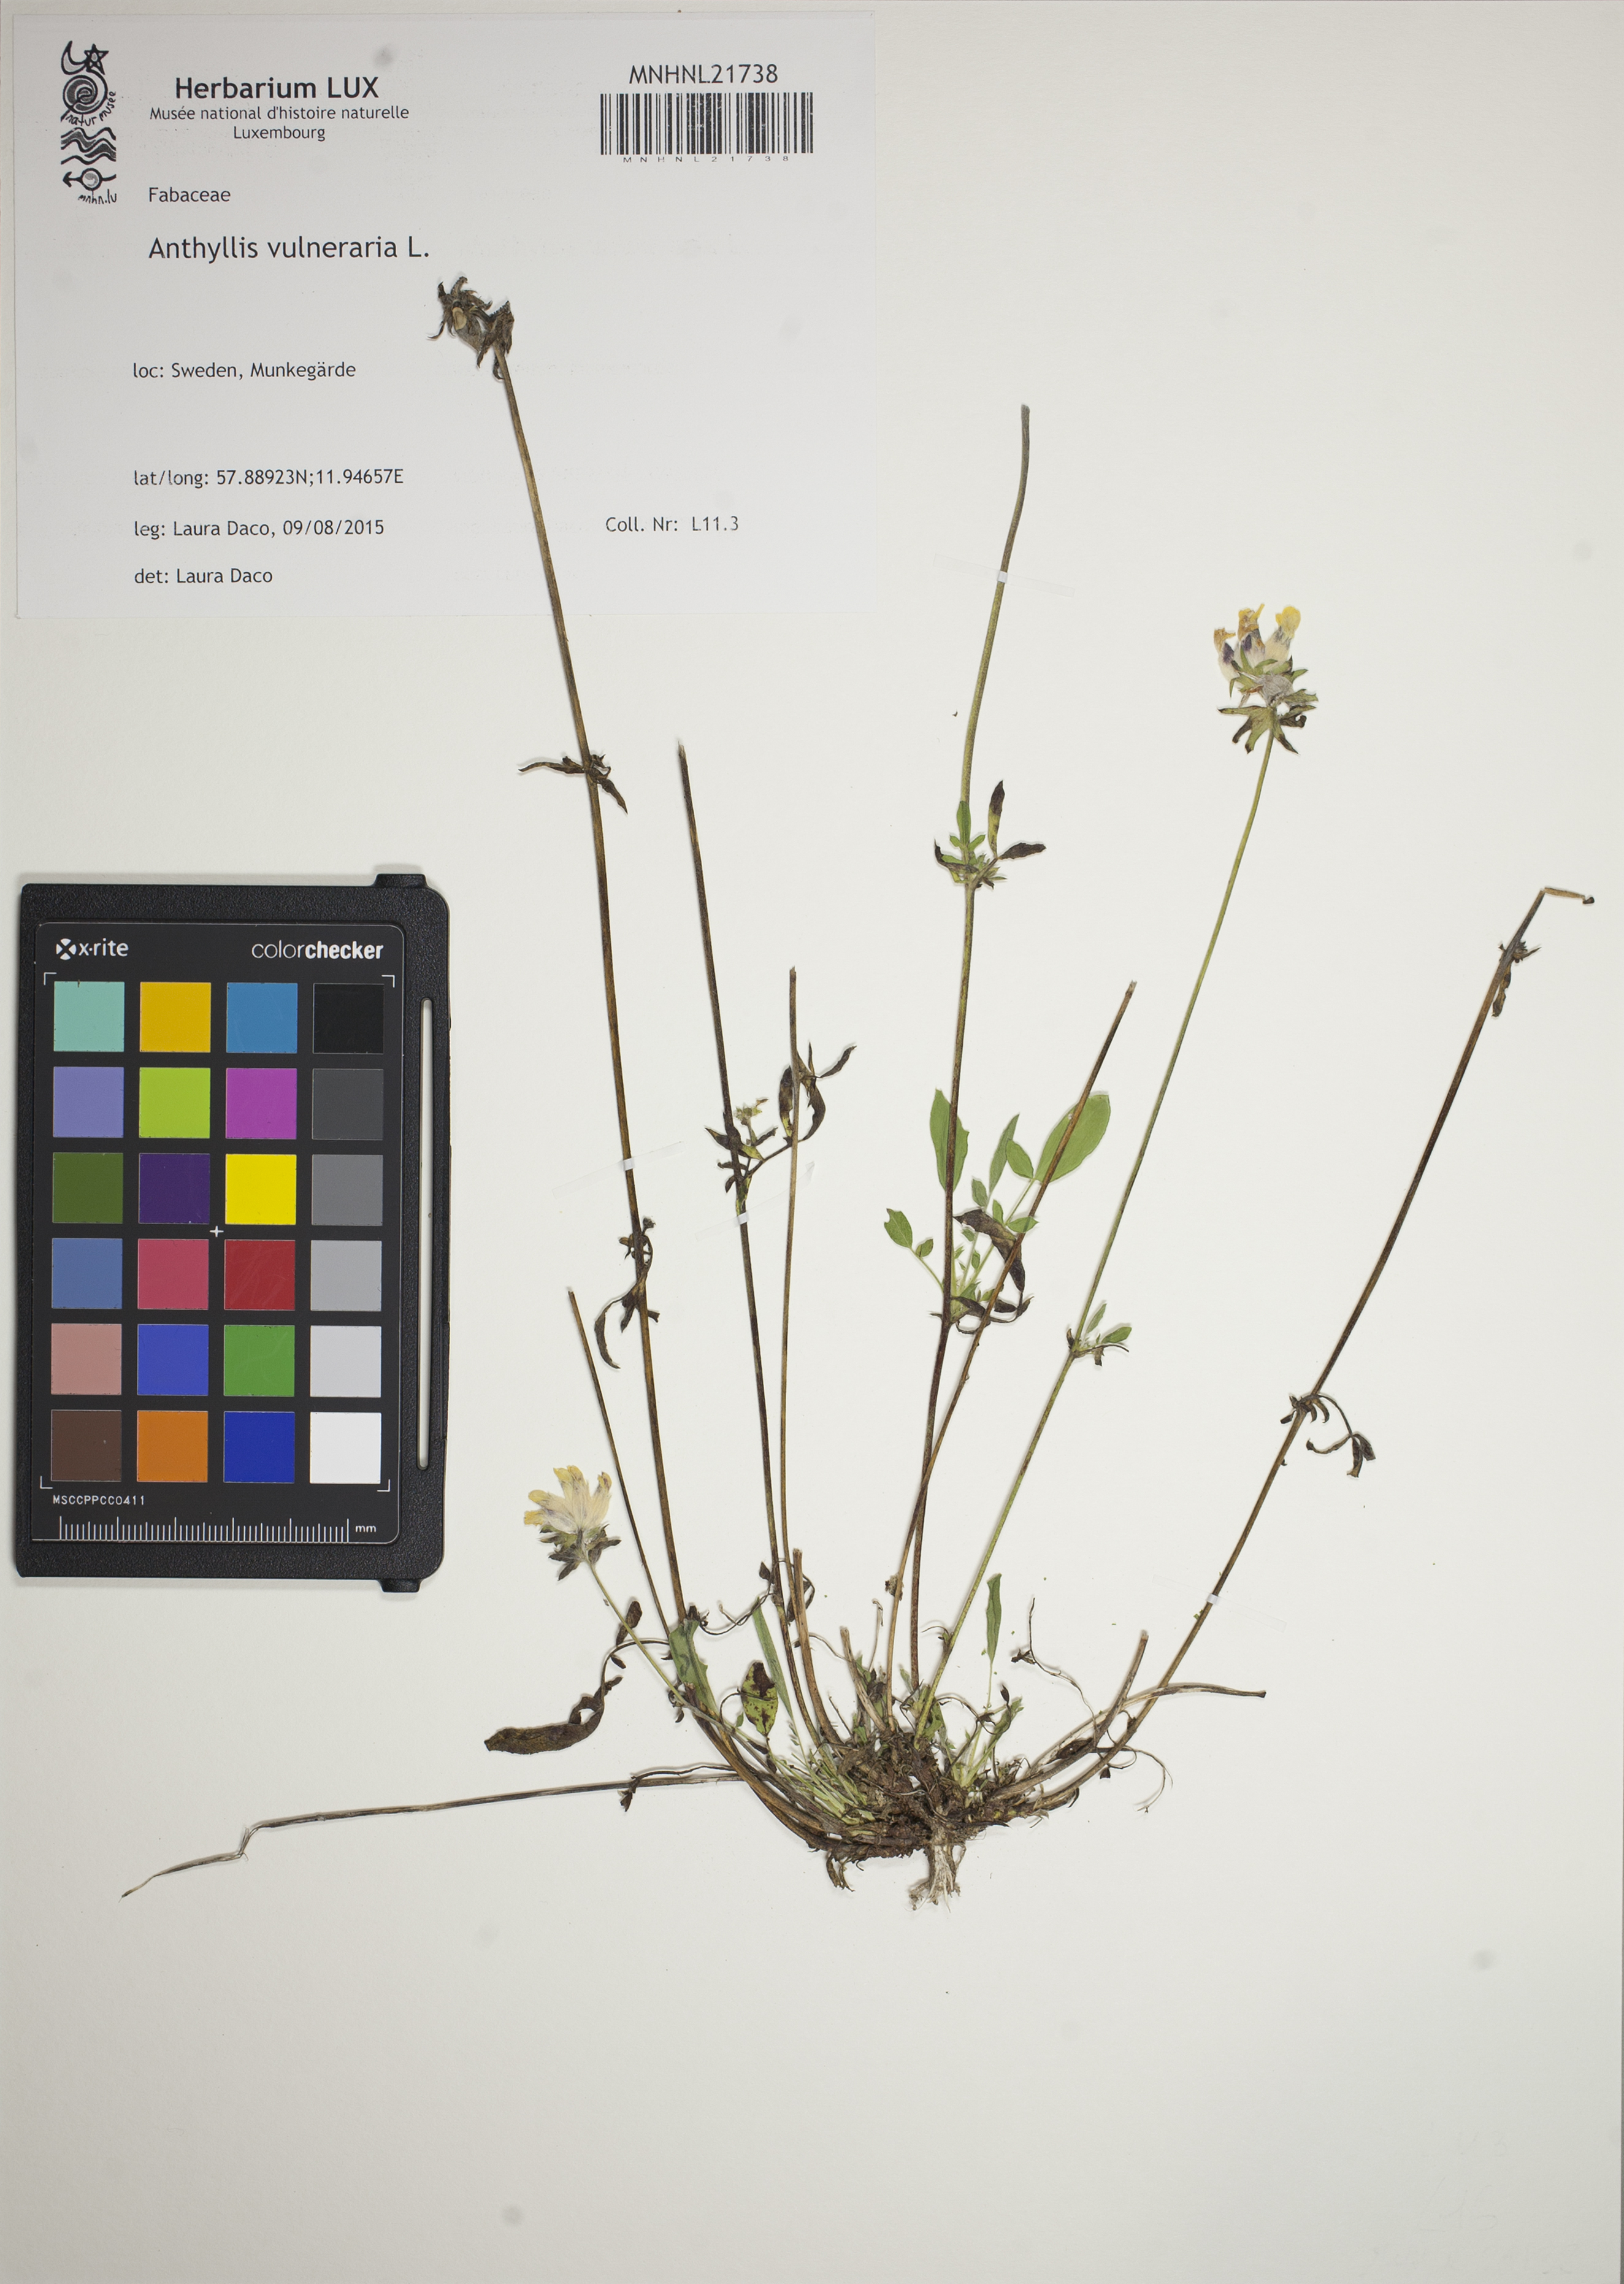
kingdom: Plantae
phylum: Tracheophyta
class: Magnoliopsida
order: Fabales
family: Fabaceae
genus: Anthyllis
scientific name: Anthyllis vulneraria
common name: Kidney vetch
